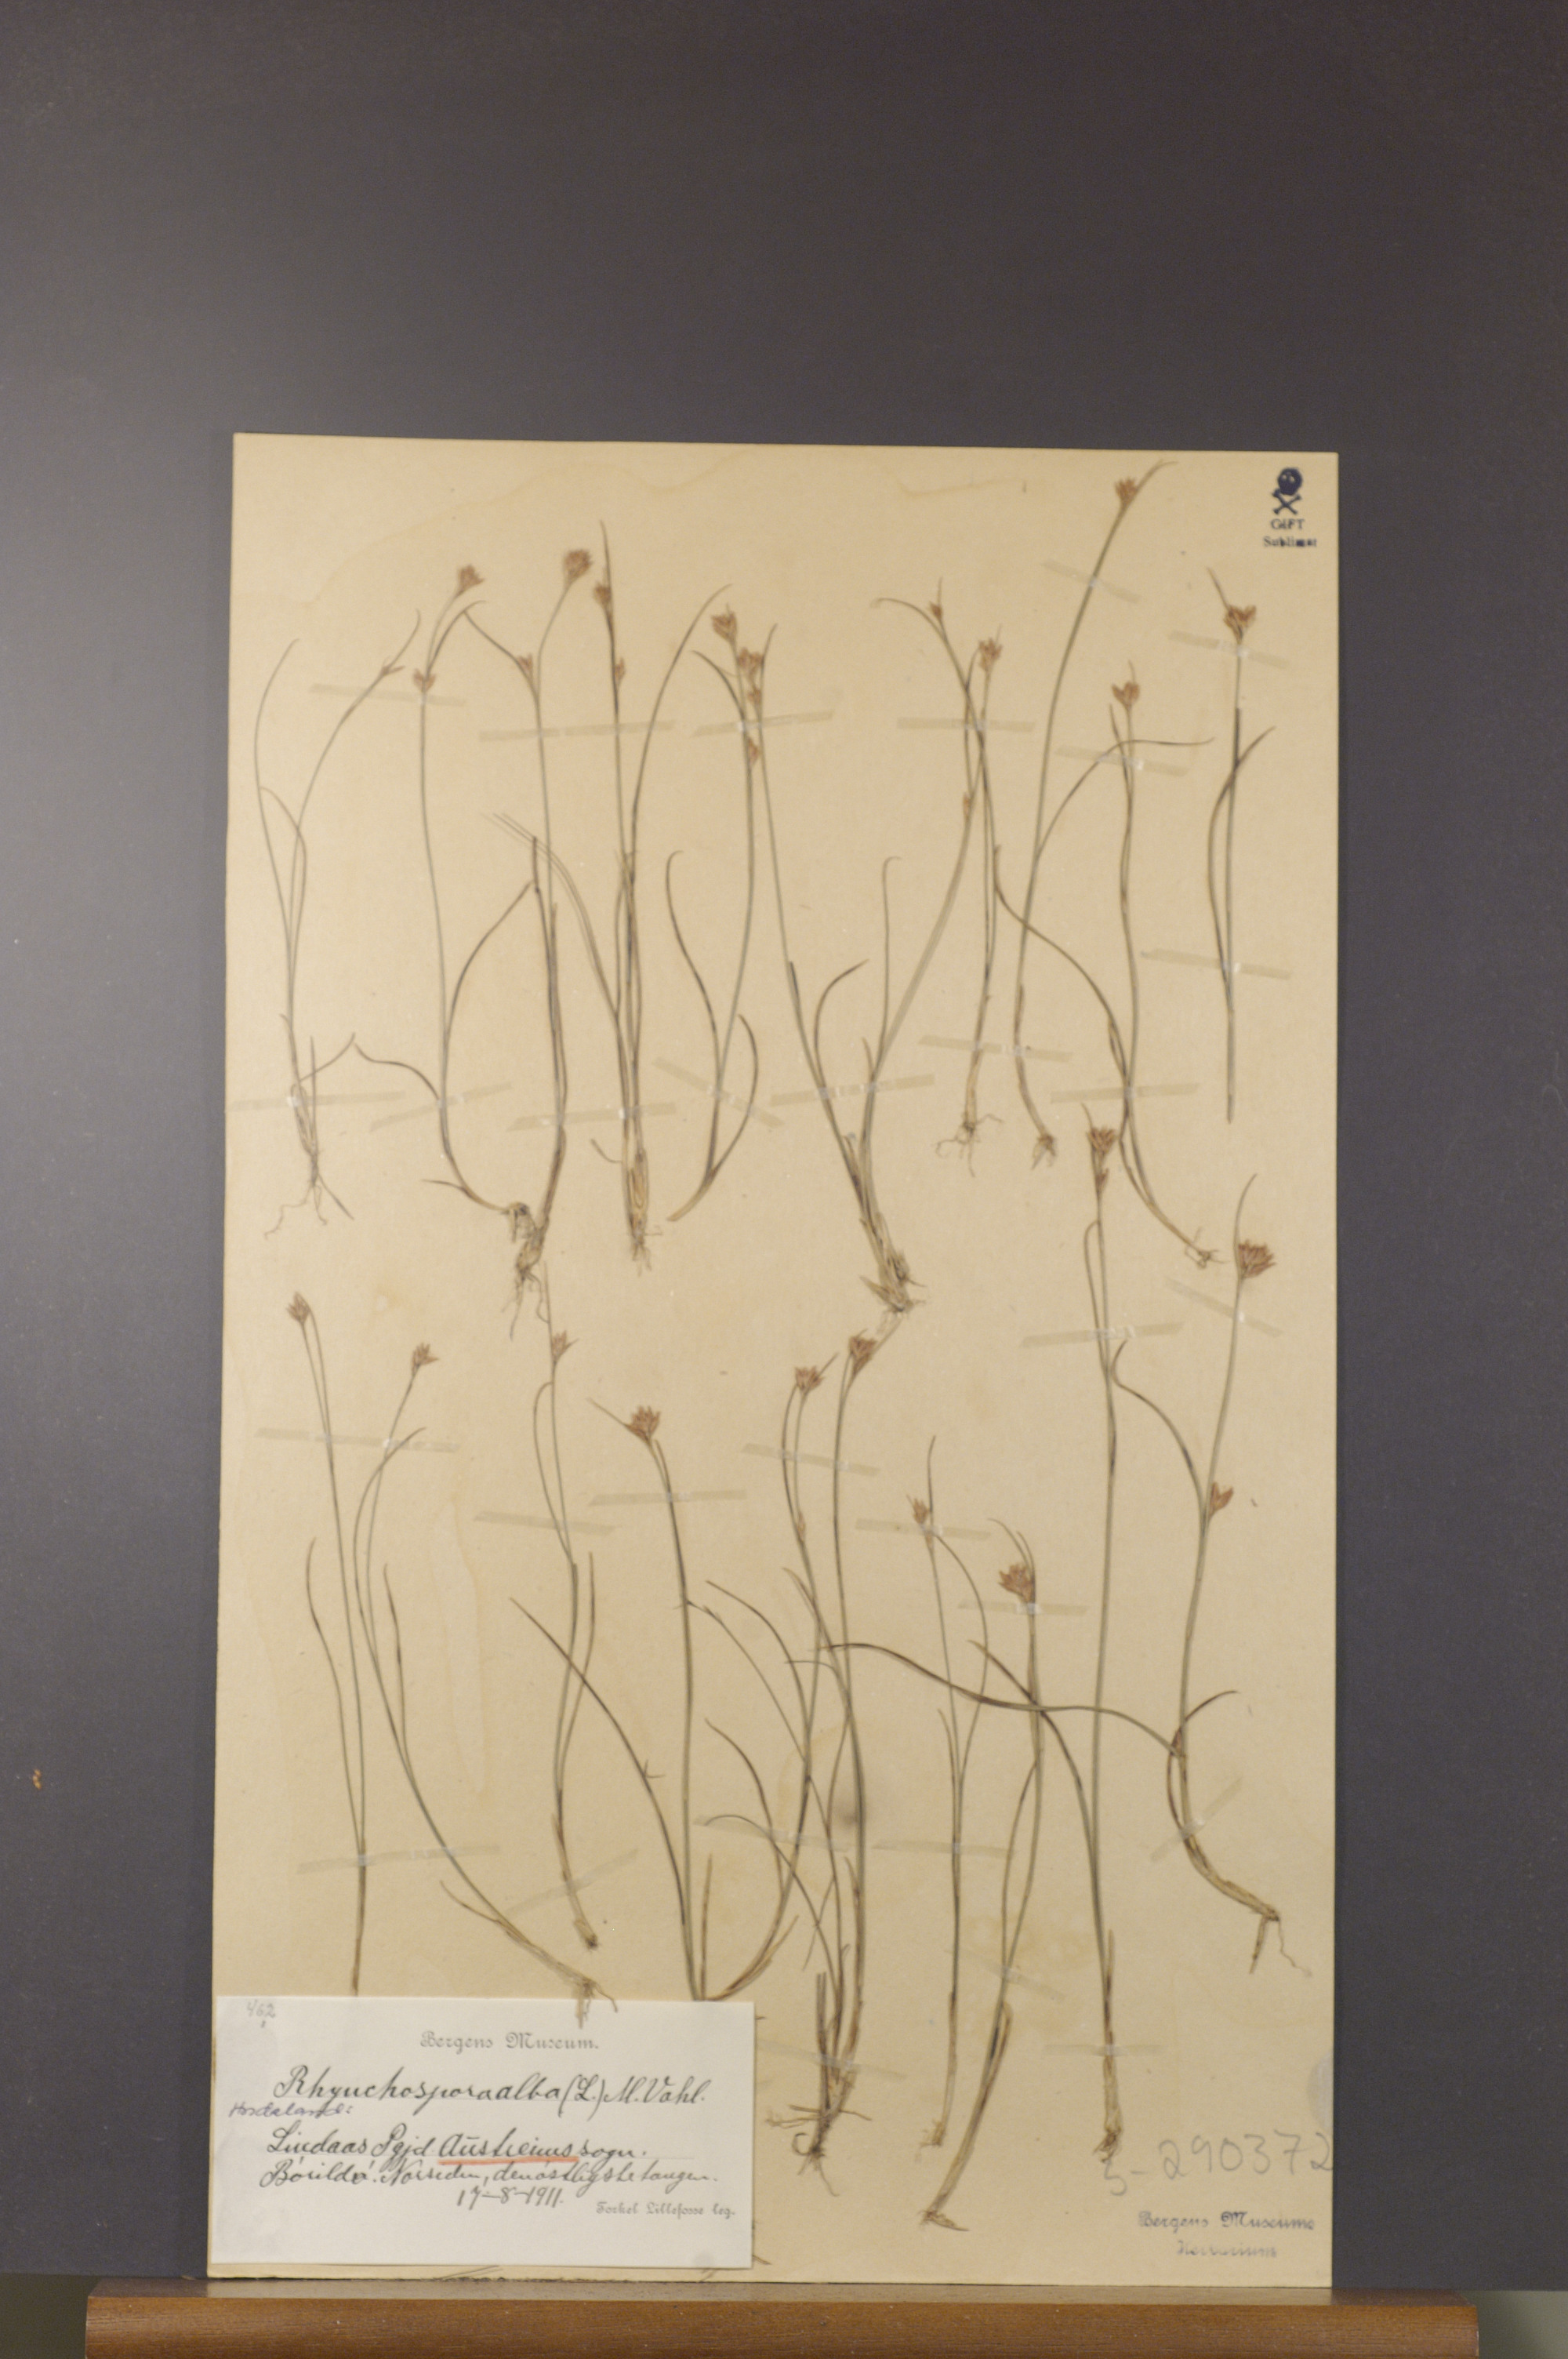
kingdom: Plantae
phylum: Tracheophyta
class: Liliopsida
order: Poales
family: Cyperaceae
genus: Rhynchospora
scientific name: Rhynchospora alba
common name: White beak-sedge
